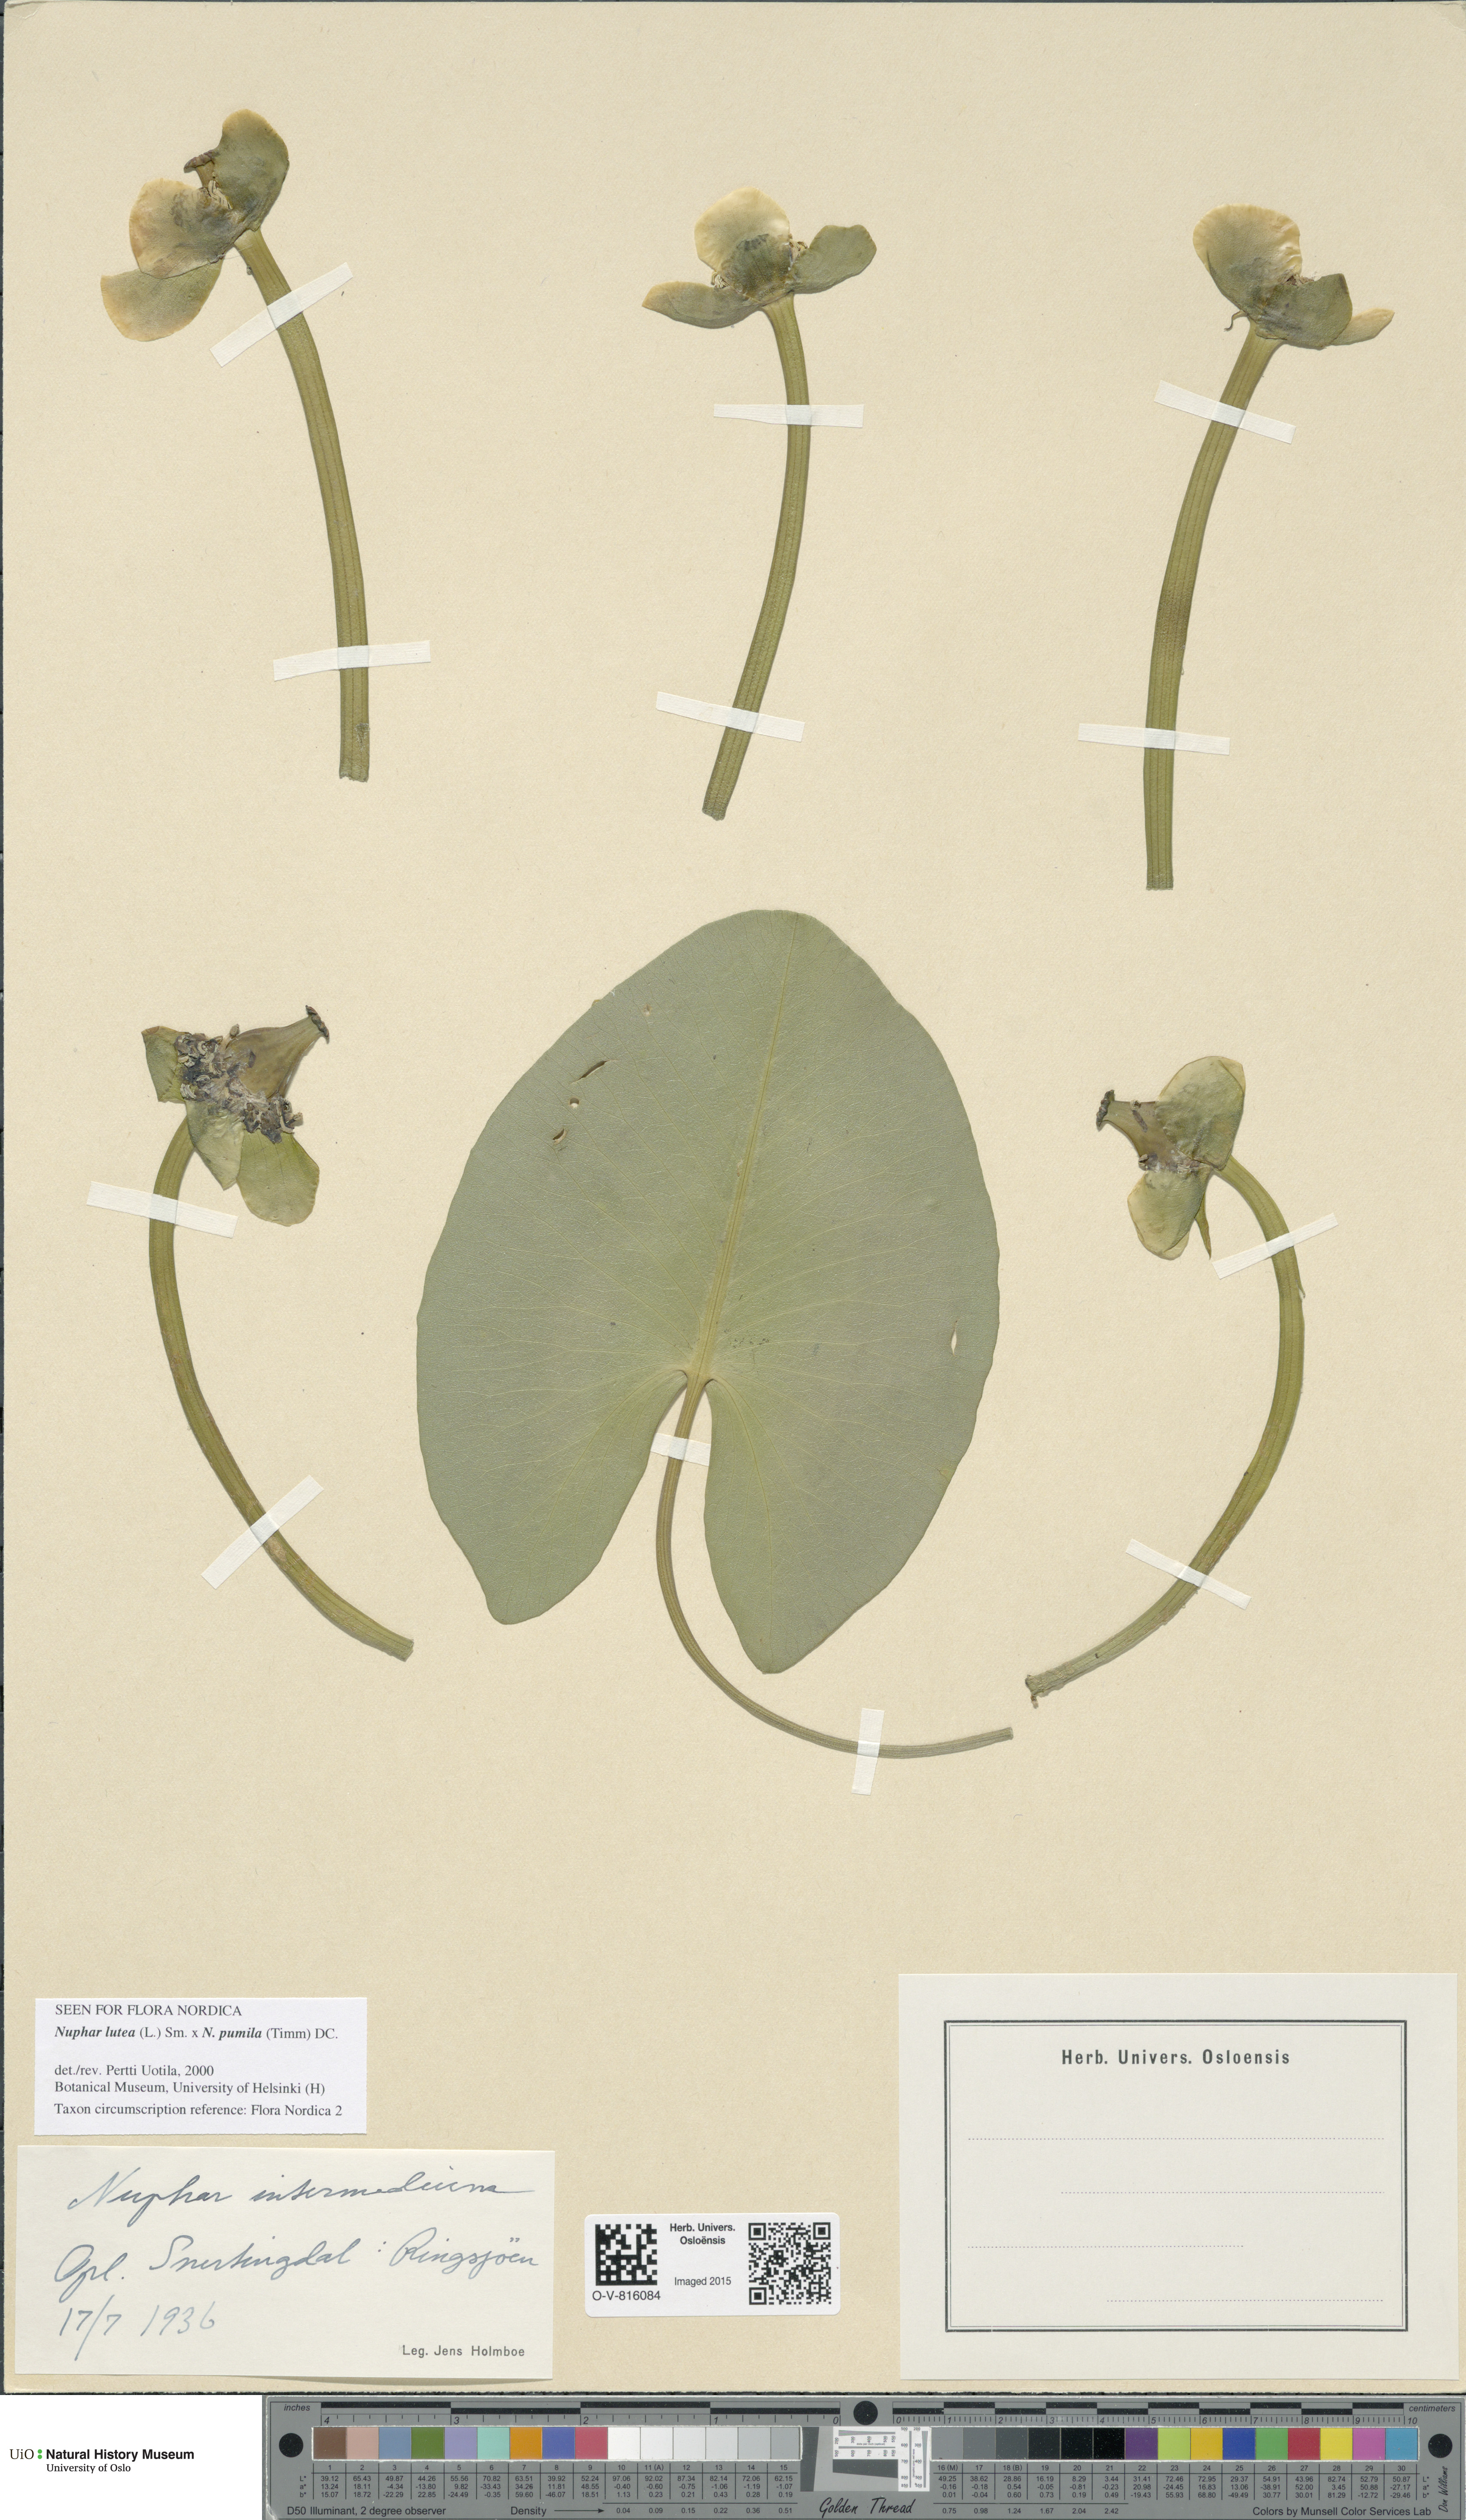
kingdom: Plantae
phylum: Tracheophyta
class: Magnoliopsida
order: Nymphaeales
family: Nymphaeaceae
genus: Nuphar
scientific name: Nuphar
